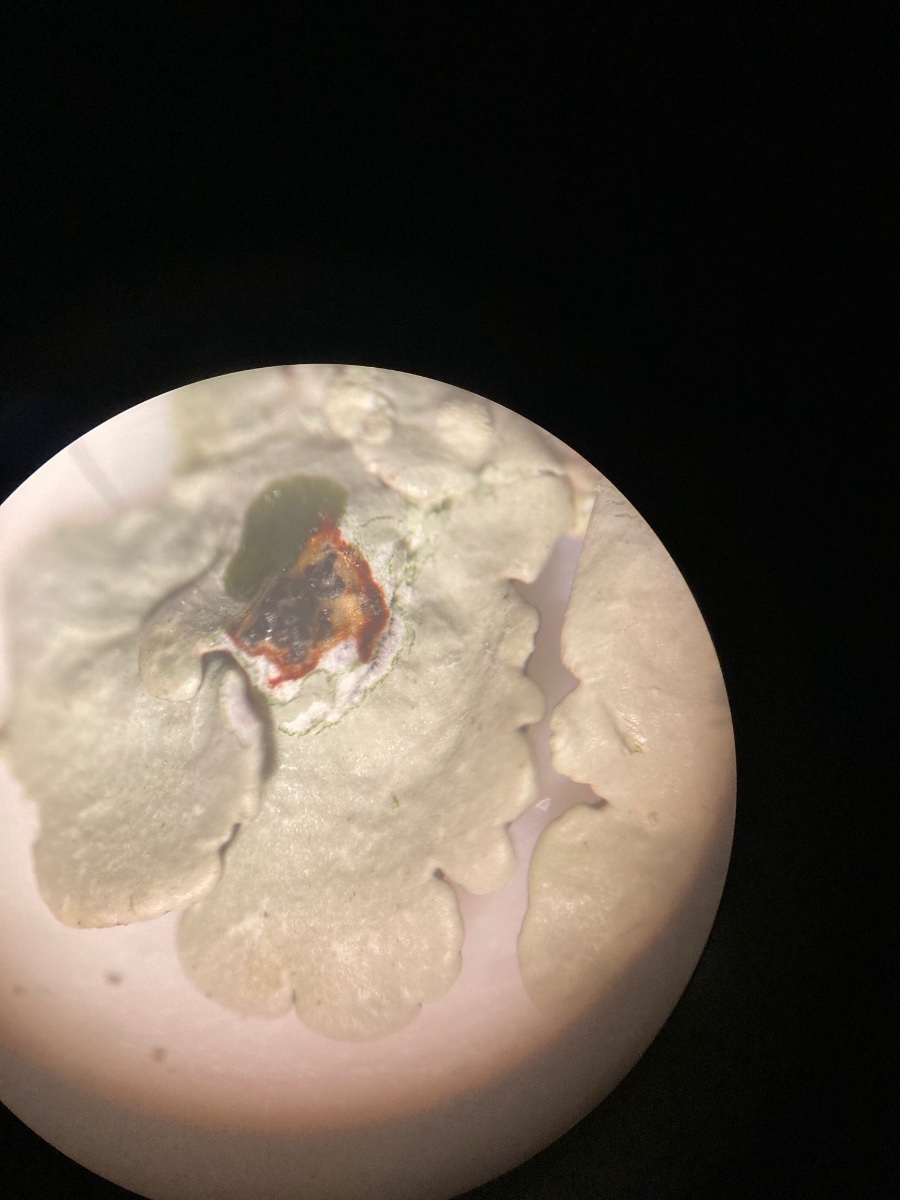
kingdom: Fungi
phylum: Ascomycota
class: Lecanoromycetes
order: Lecanorales
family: Parmeliaceae
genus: Flavoparmelia
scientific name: Flavoparmelia soredians
